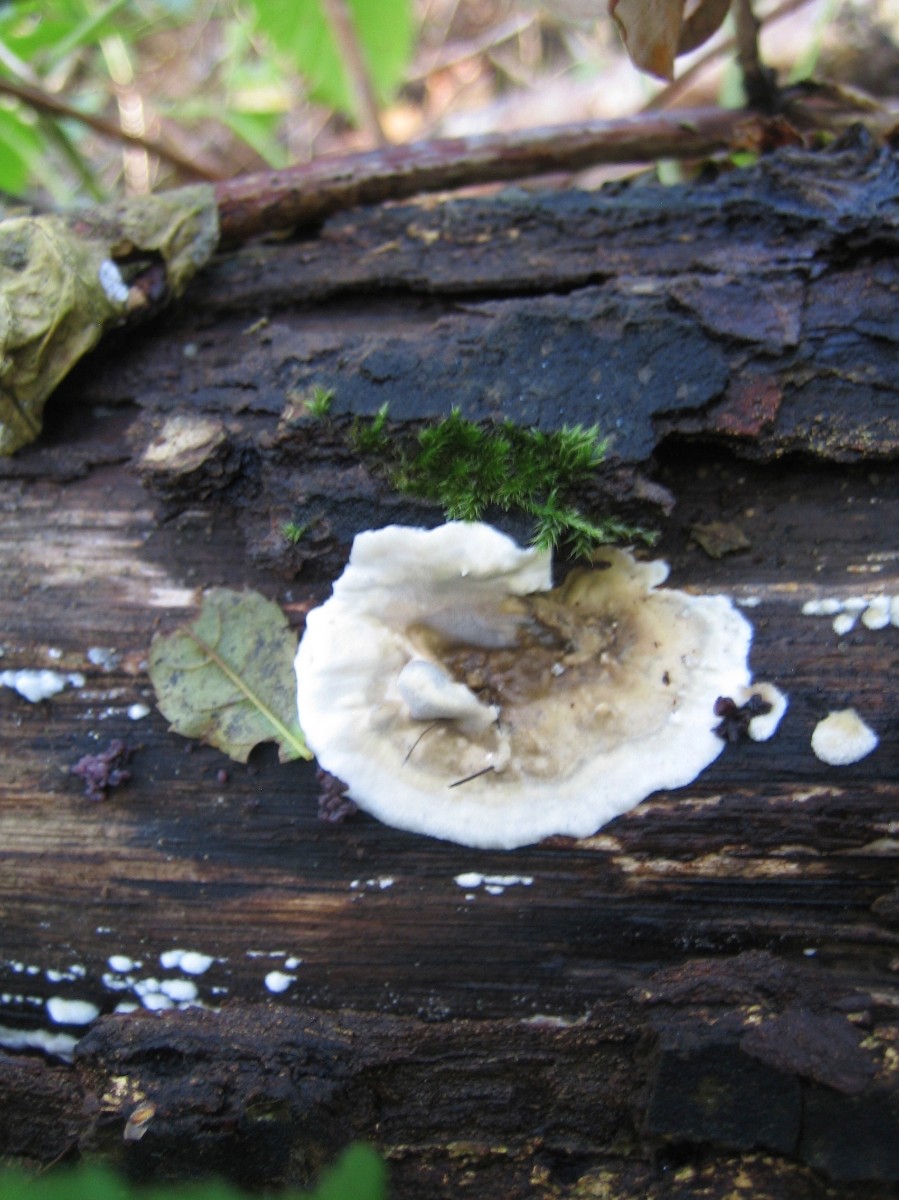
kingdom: Fungi
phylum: Basidiomycota
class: Agaricomycetes
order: Polyporales
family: Phanerochaetaceae
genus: Bjerkandera
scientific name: Bjerkandera adusta
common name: sveden sodporesvamp
